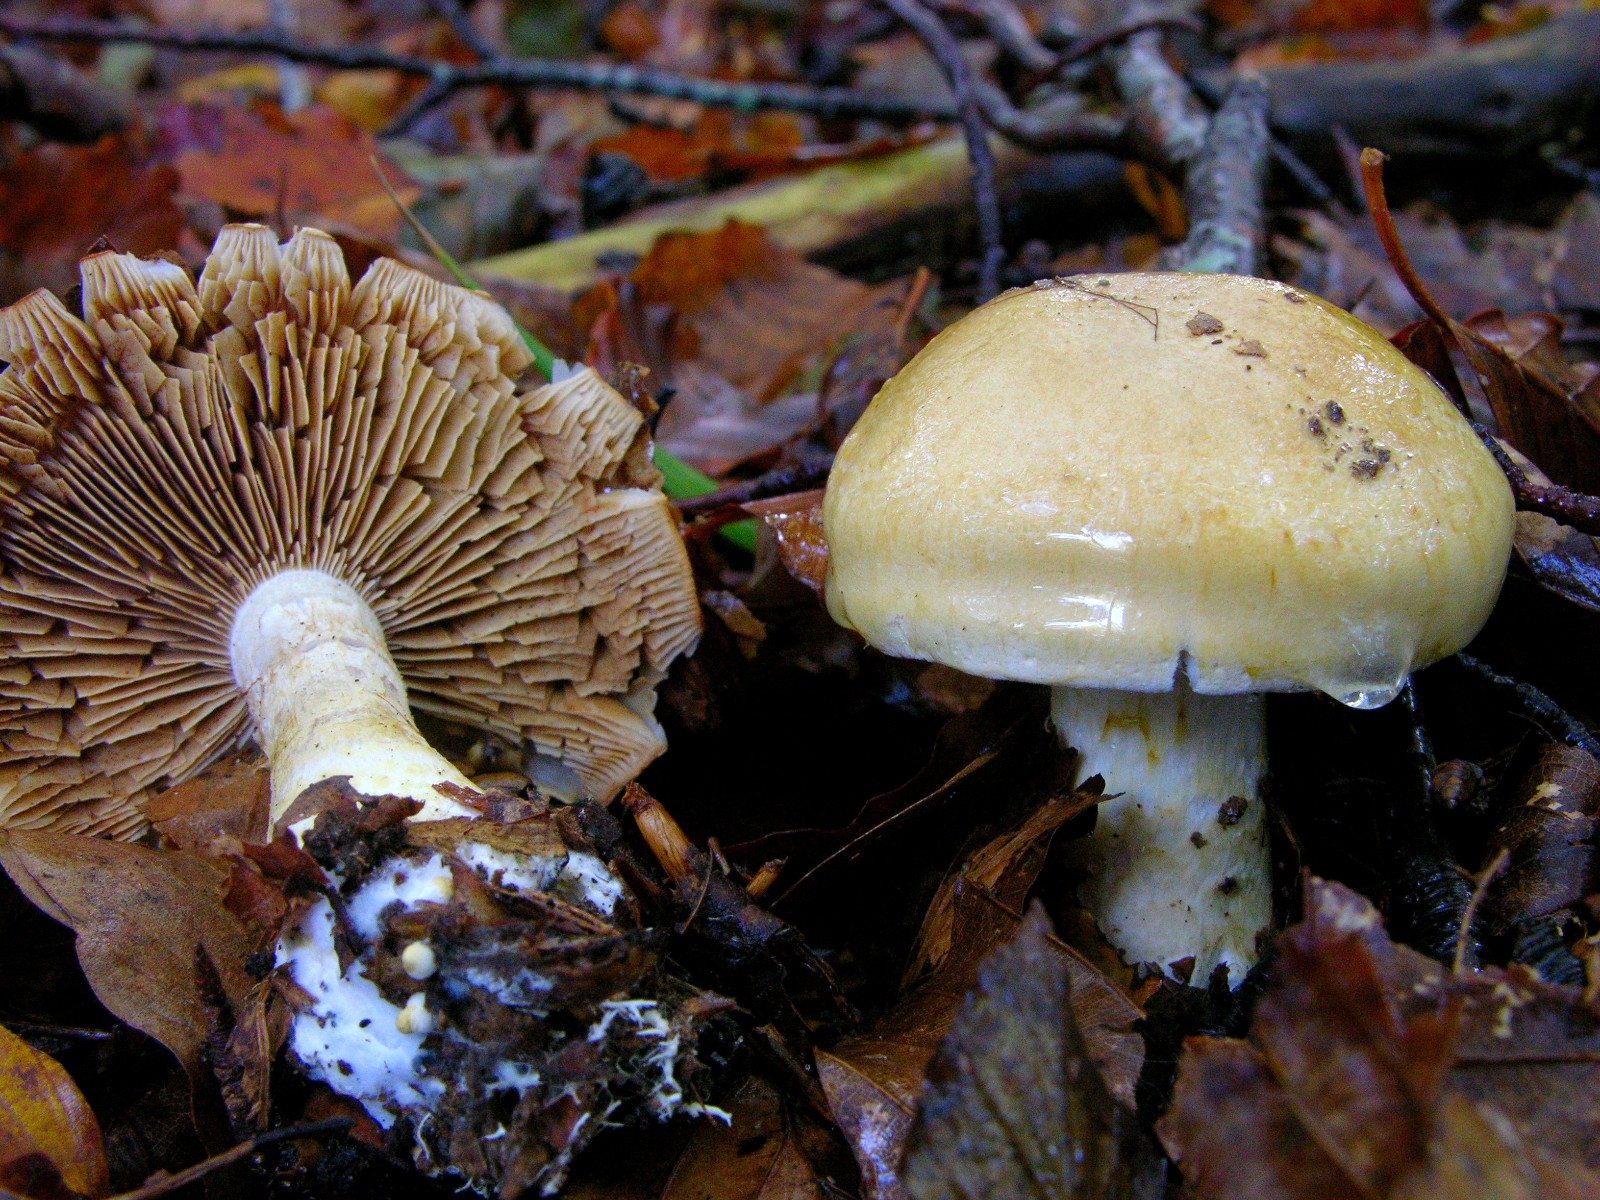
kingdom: Fungi
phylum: Basidiomycota
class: Agaricomycetes
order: Agaricales
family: Cortinariaceae
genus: Phlegmacium
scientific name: Phlegmacium cliduchus
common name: majs-slørhat
